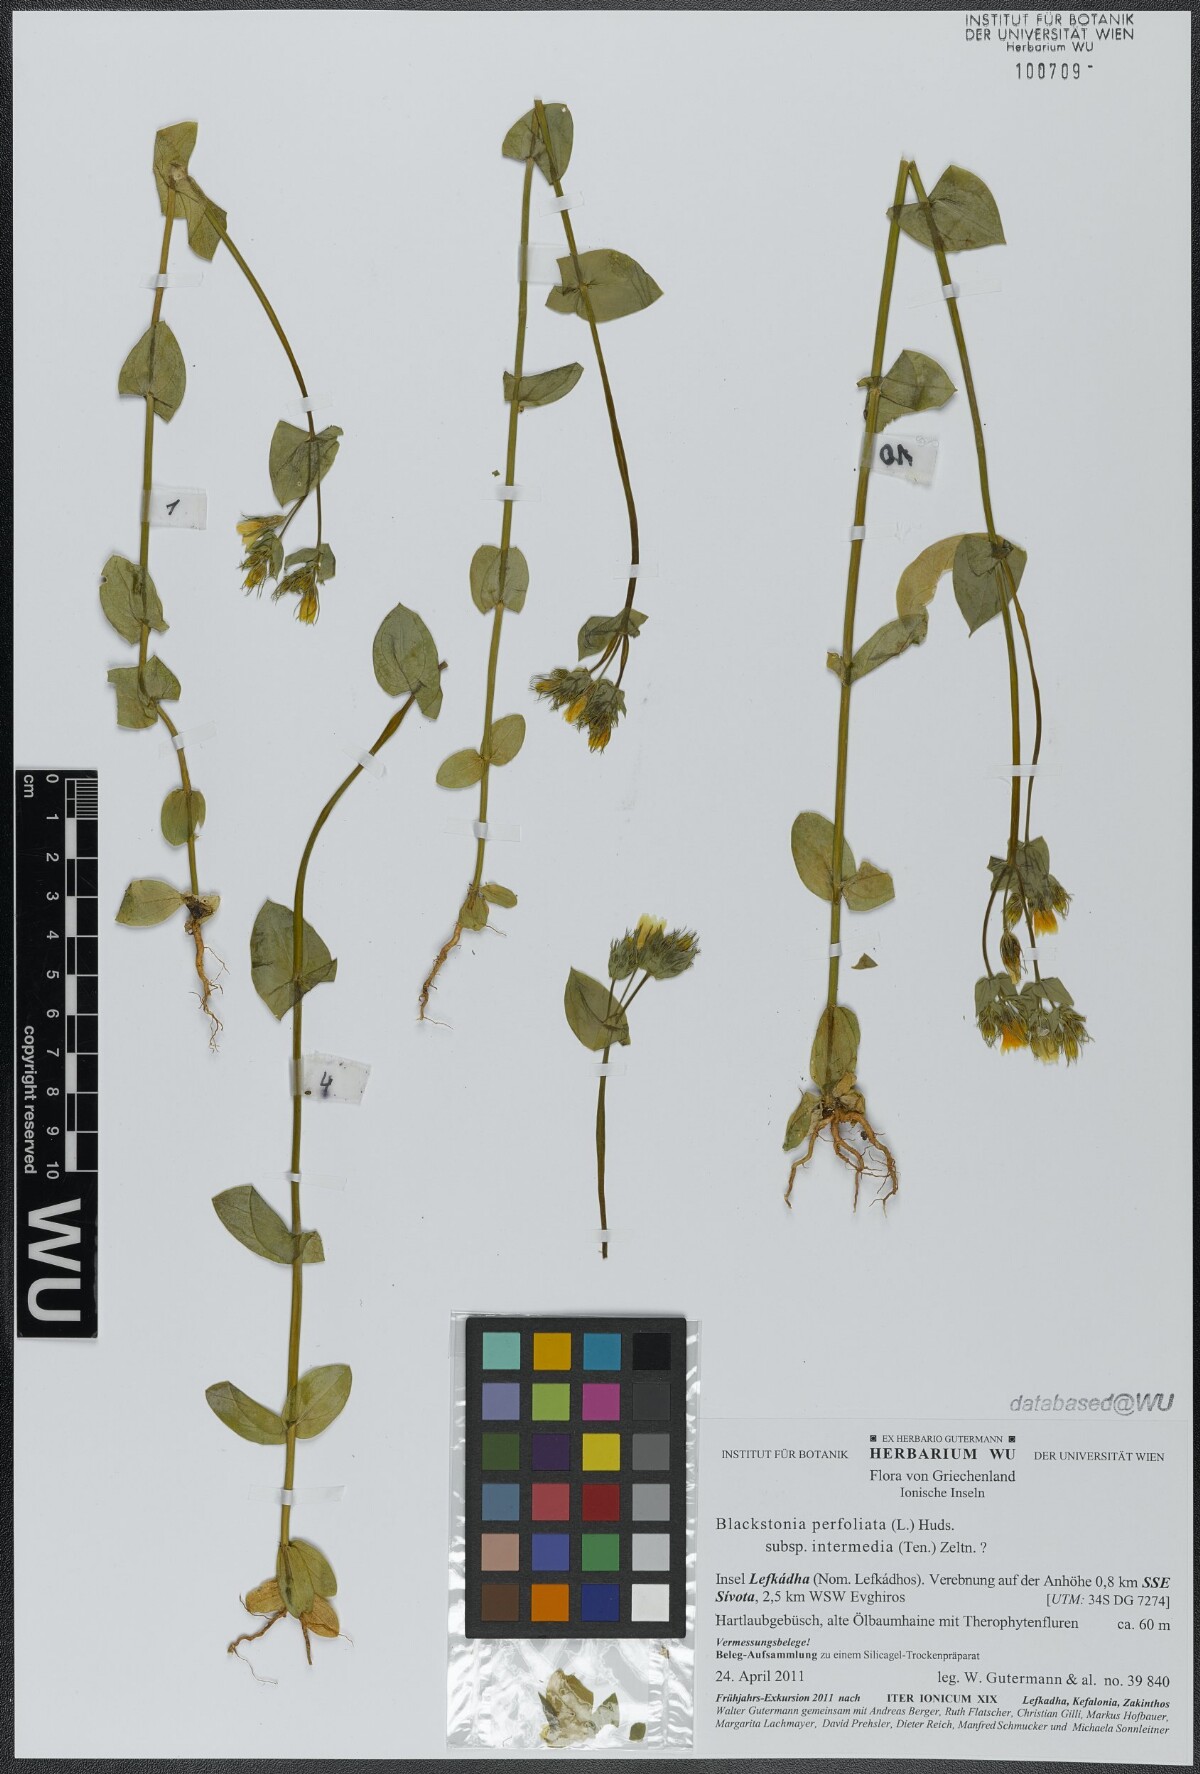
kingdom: Plantae
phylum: Tracheophyta
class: Magnoliopsida
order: Gentianales
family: Gentianaceae
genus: Blackstonia
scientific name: Blackstonia perfoliata
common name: Yellow-wort
